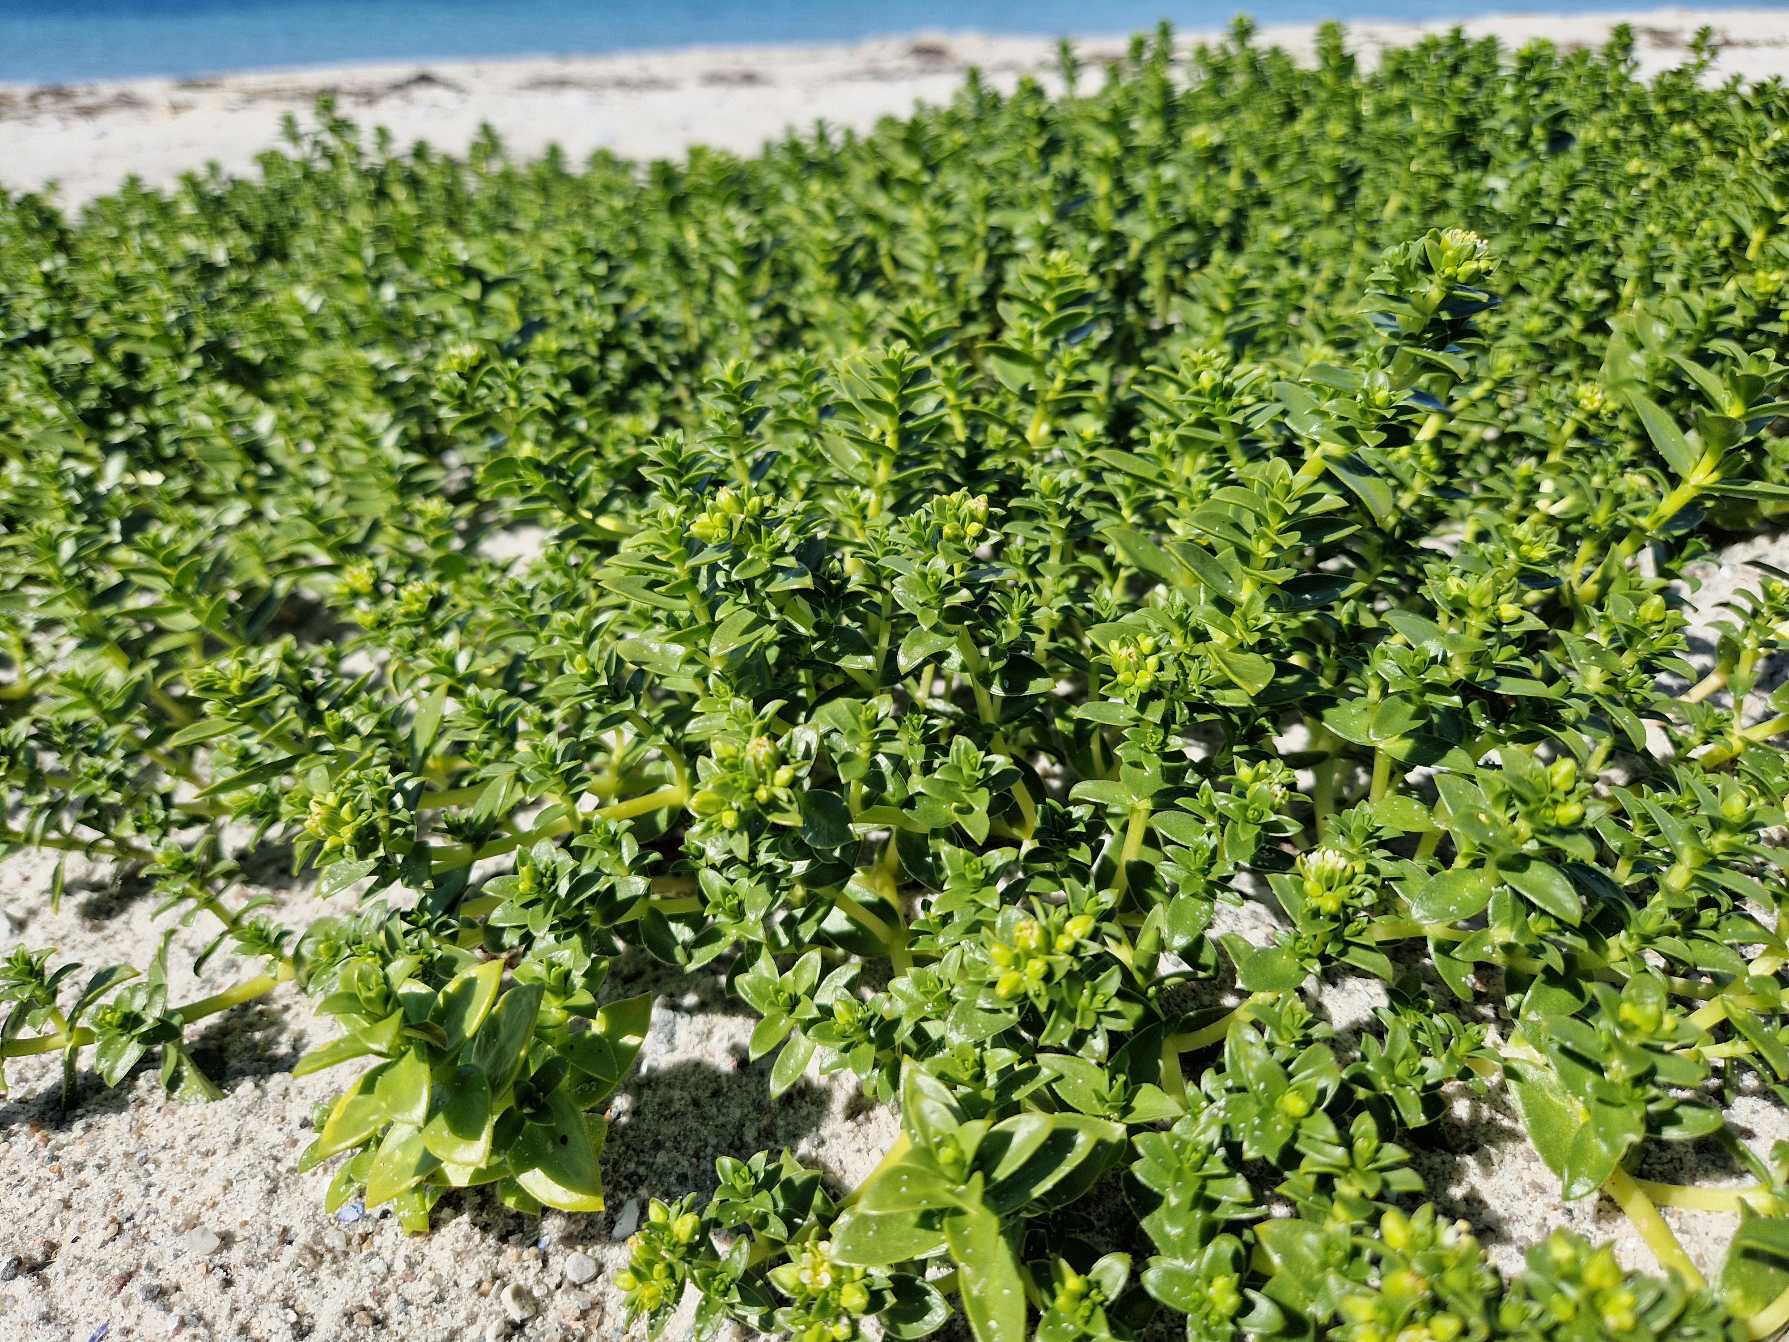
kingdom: Plantae
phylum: Tracheophyta
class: Magnoliopsida
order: Caryophyllales
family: Caryophyllaceae
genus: Honckenya
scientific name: Honckenya peploides
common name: Strandarve
